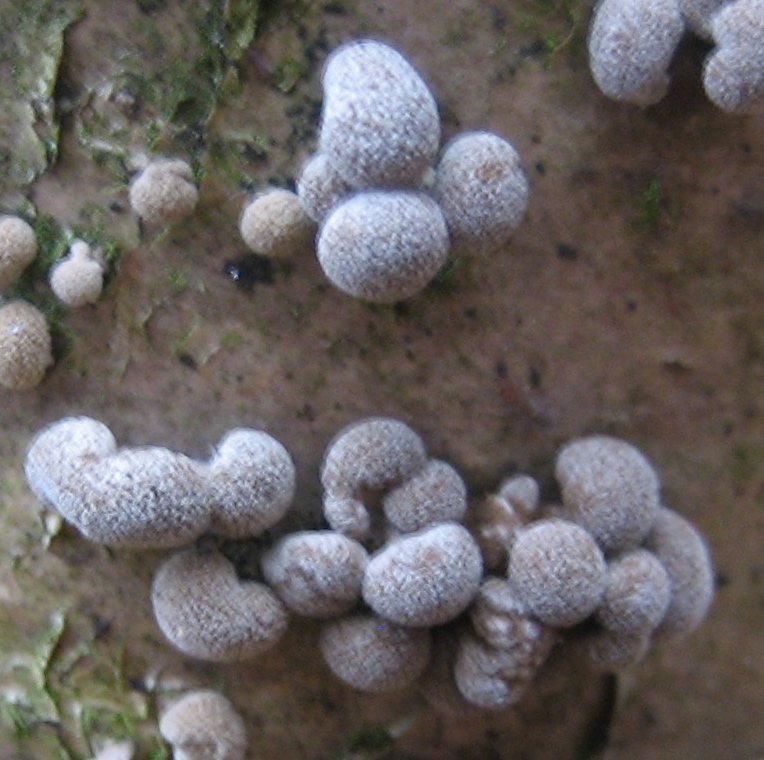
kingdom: Fungi
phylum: Basidiomycota
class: Atractiellomycetes
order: Atractiellales
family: Phleogenaceae
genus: Phleogena
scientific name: Phleogena faginea
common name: pudderkølle
